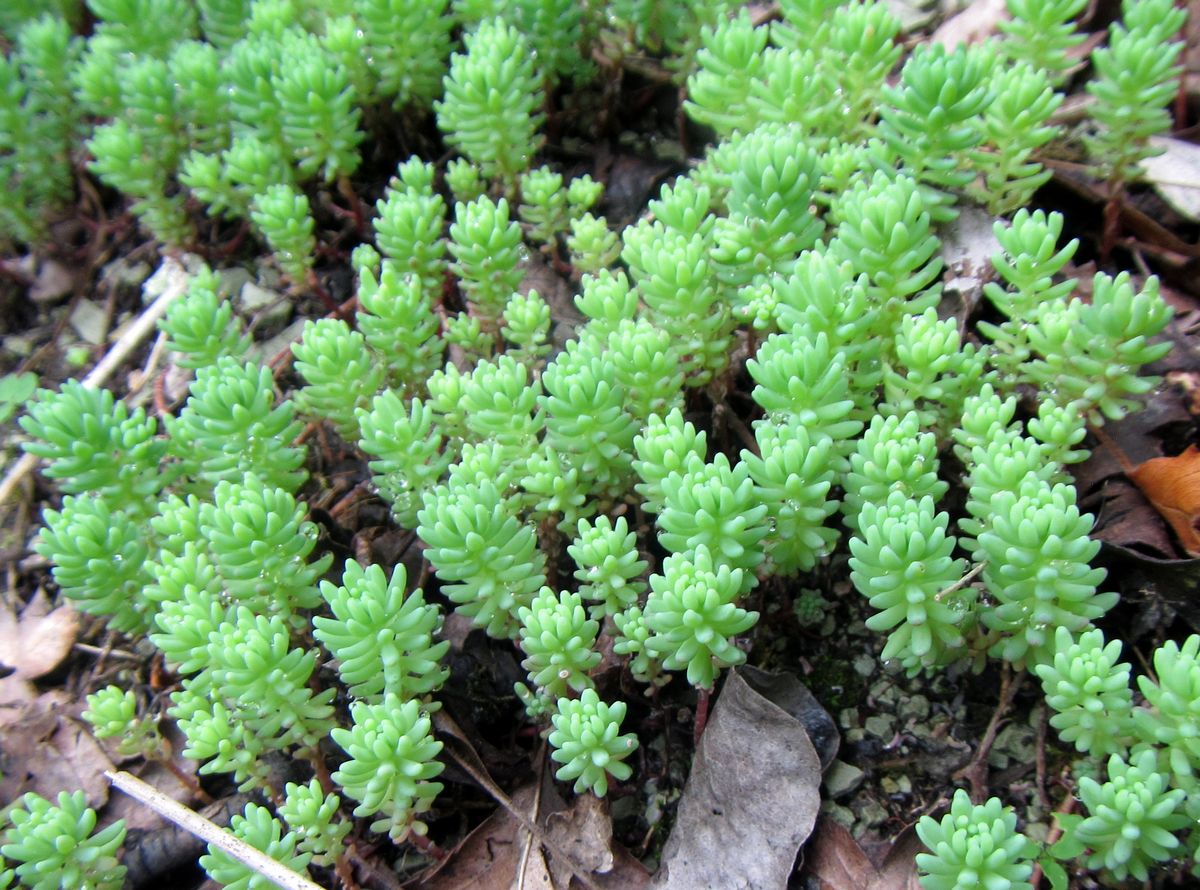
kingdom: Plantae
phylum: Tracheophyta
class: Magnoliopsida
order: Saxifragales
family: Crassulaceae
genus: Petrosedum
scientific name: Petrosedum rupestre
